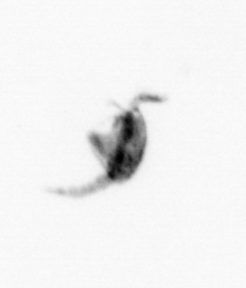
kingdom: Animalia
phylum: Arthropoda
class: Copepoda
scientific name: Copepoda
